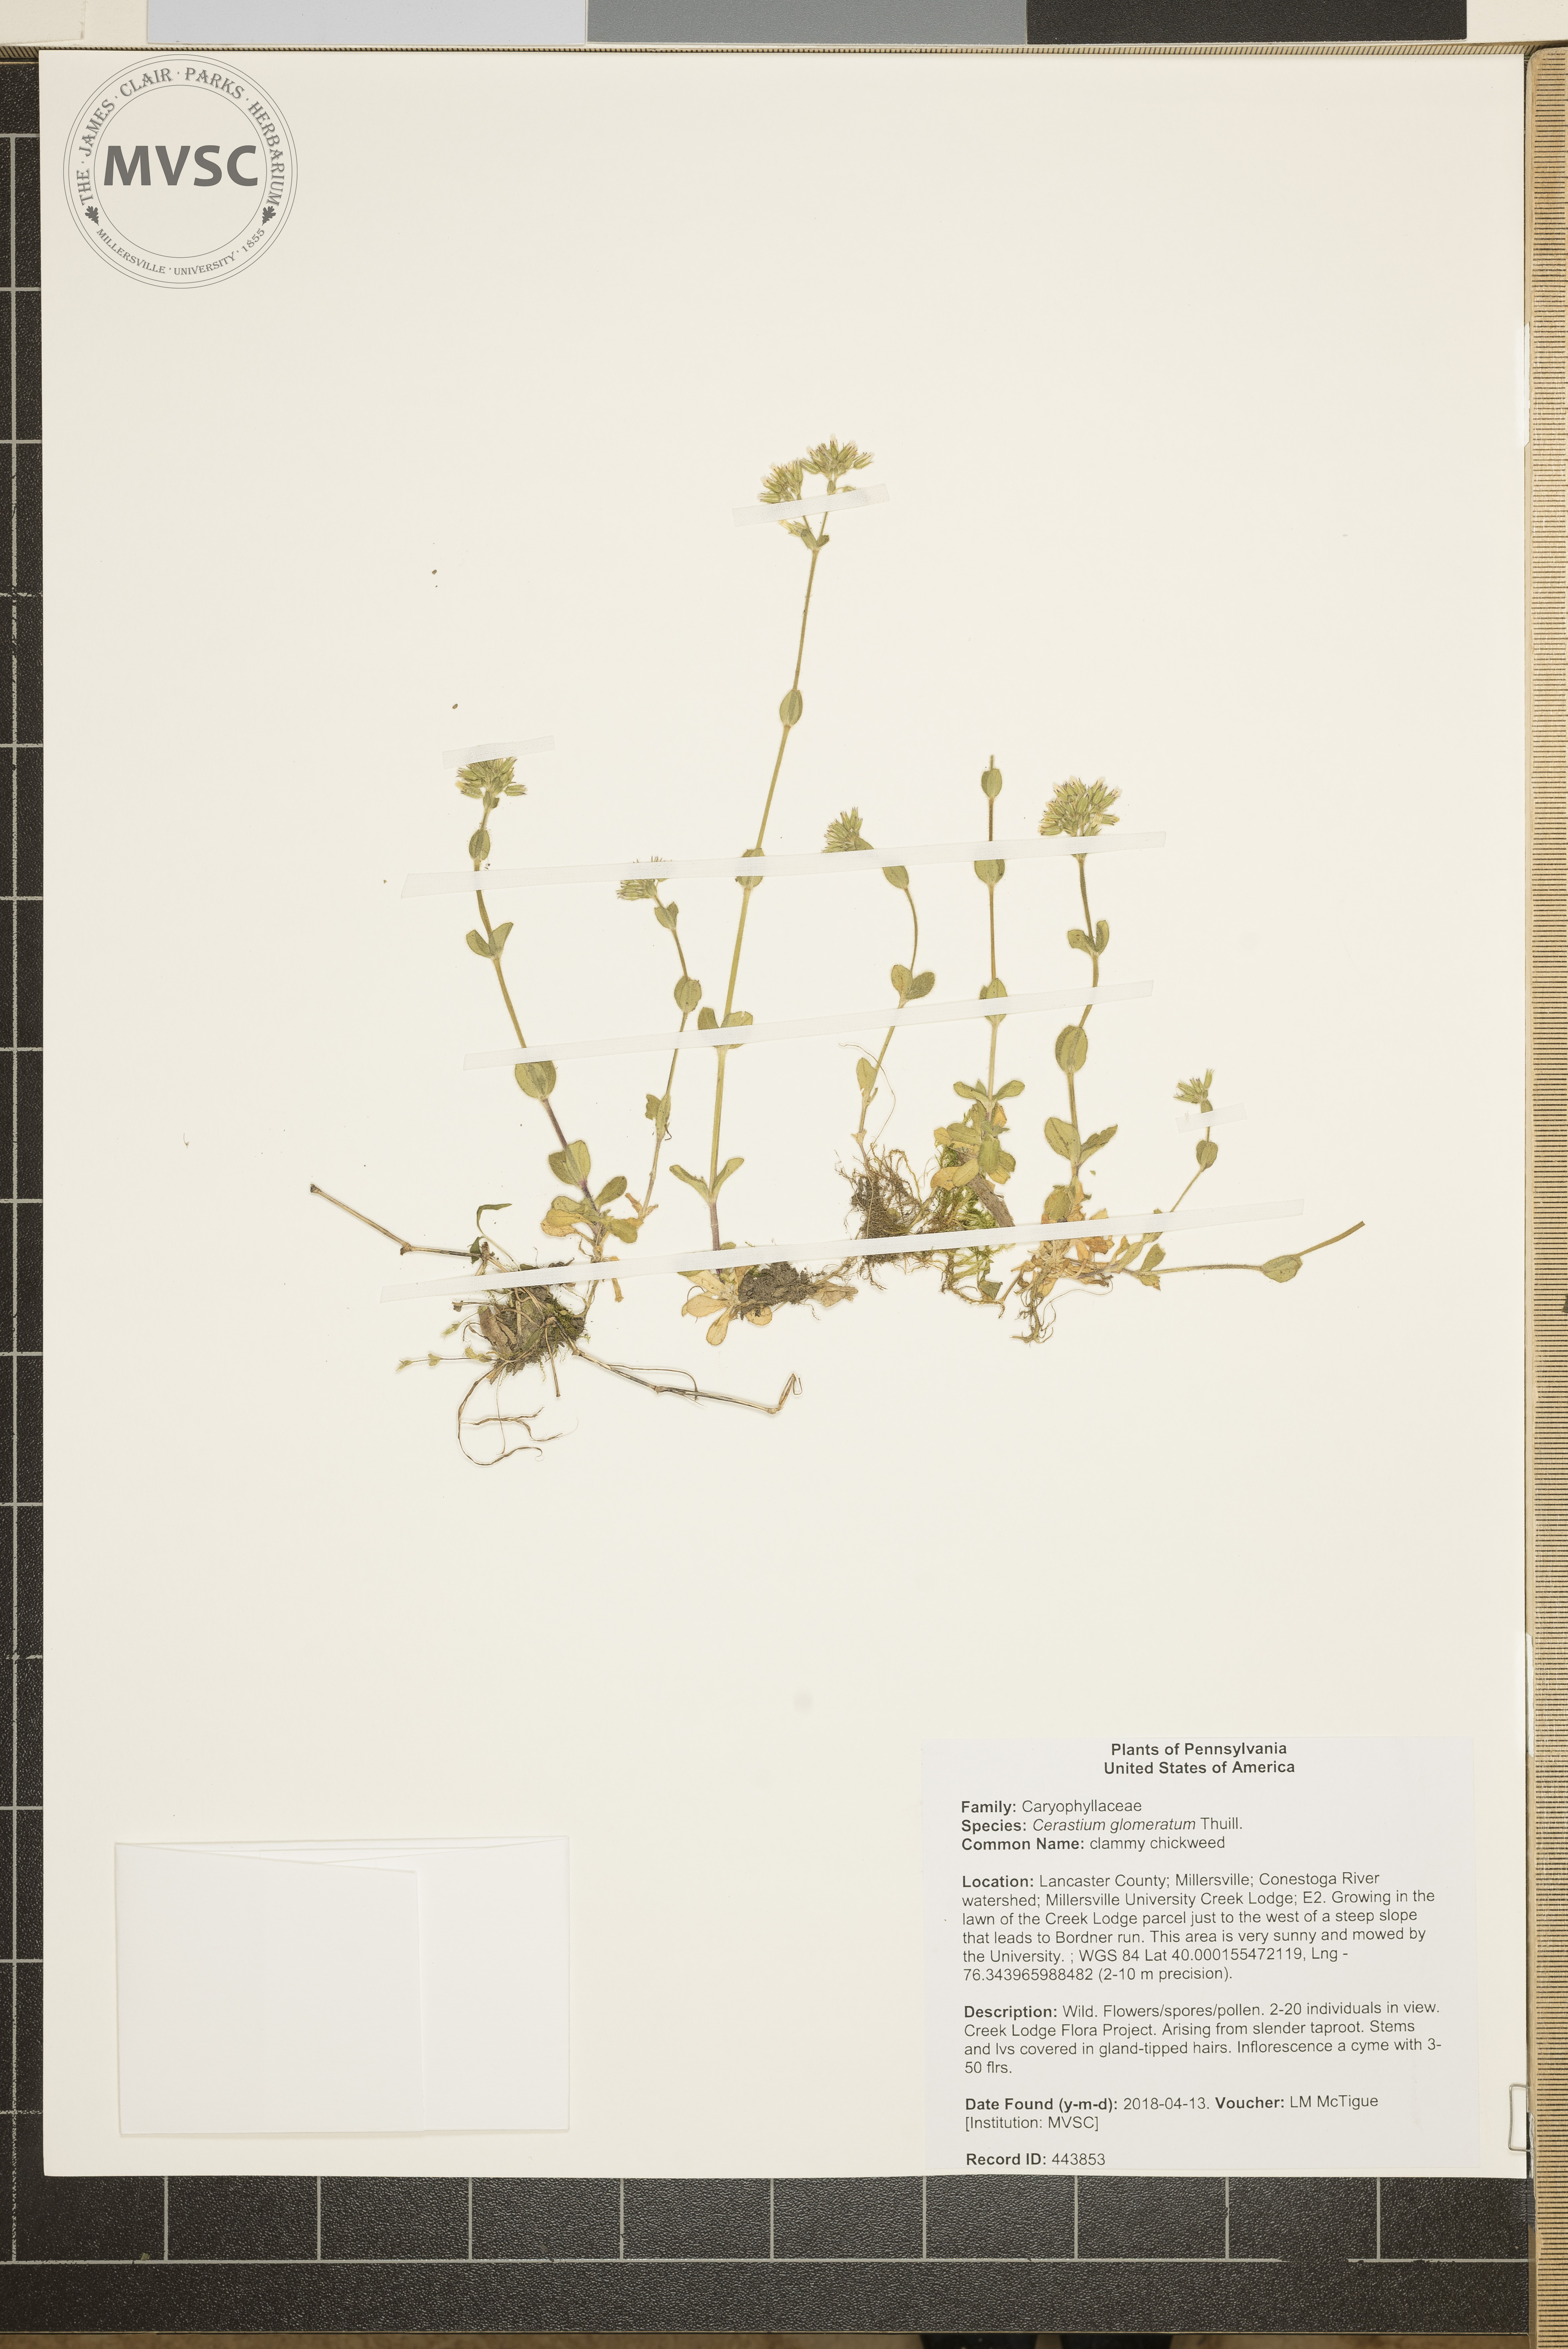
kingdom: Plantae
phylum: Tracheophyta
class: Magnoliopsida
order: Caryophyllales
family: Caryophyllaceae
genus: Cerastium
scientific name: Cerastium glomeratum
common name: clammy chickweed
